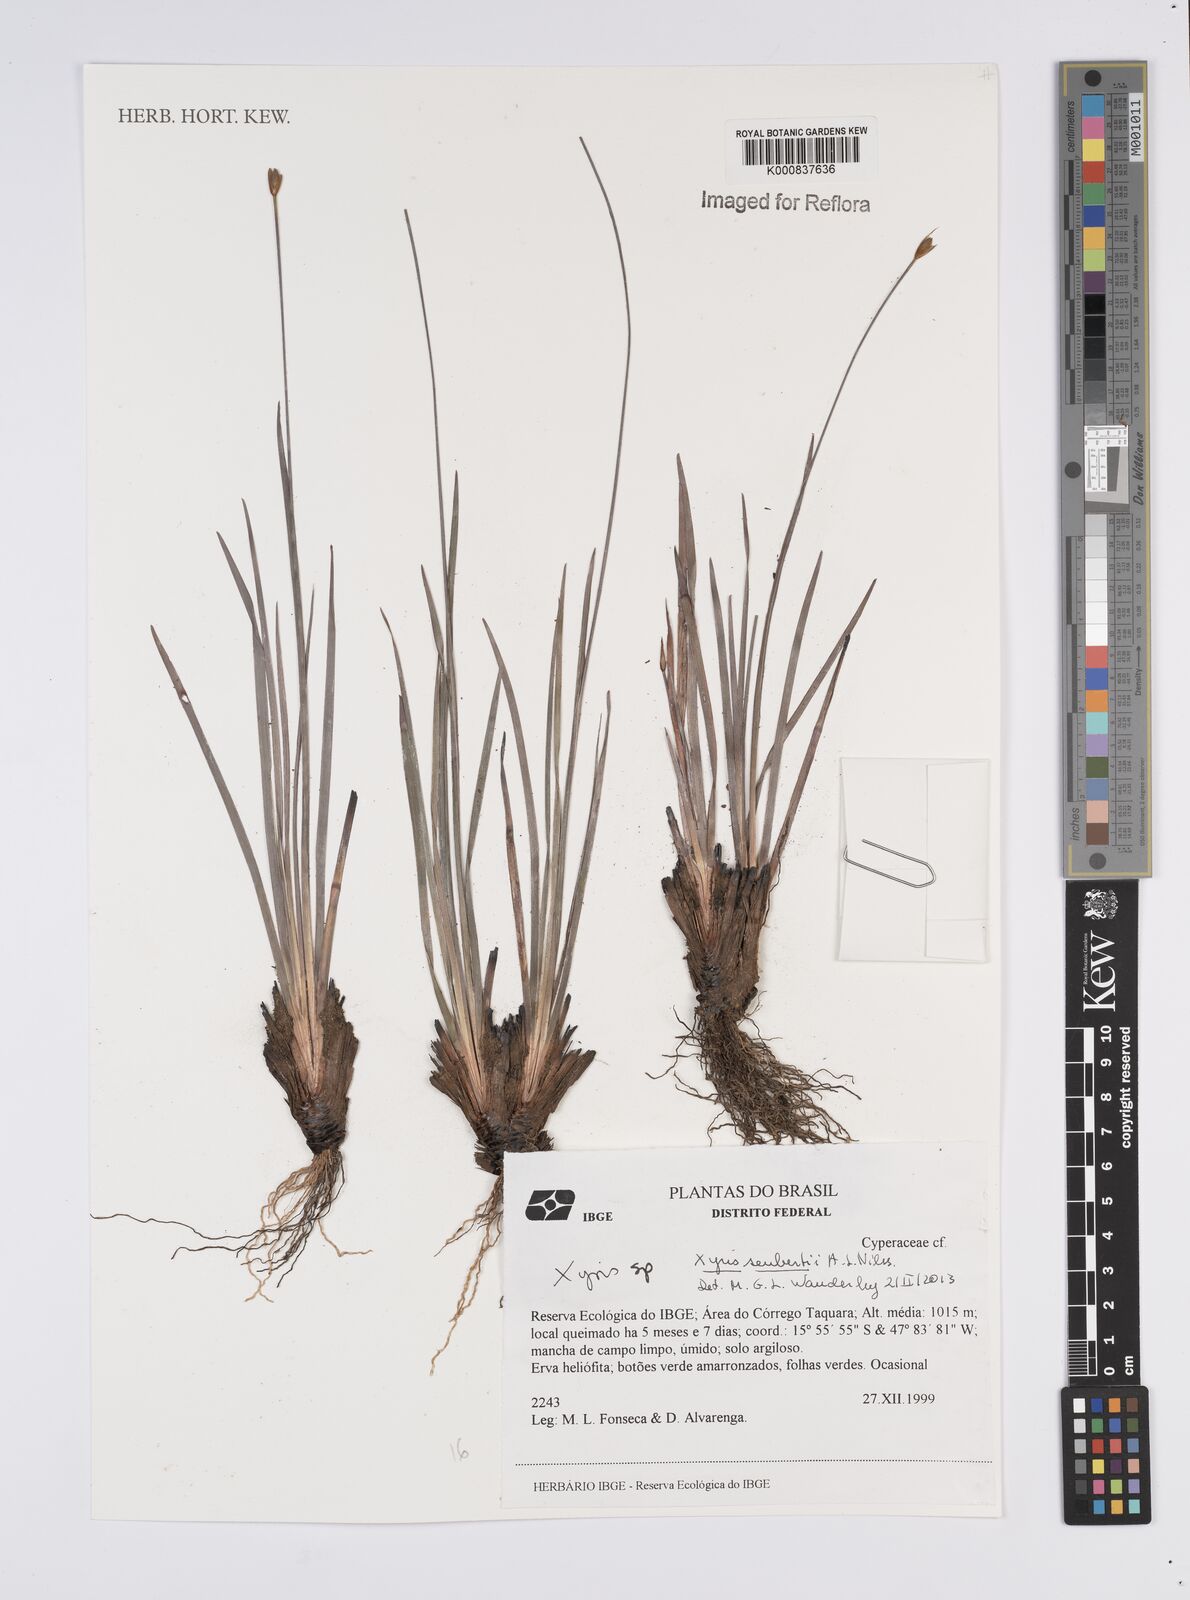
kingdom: Plantae
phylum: Tracheophyta
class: Liliopsida
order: Poales
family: Xyridaceae
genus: Xyris
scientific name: Xyris seubertii
